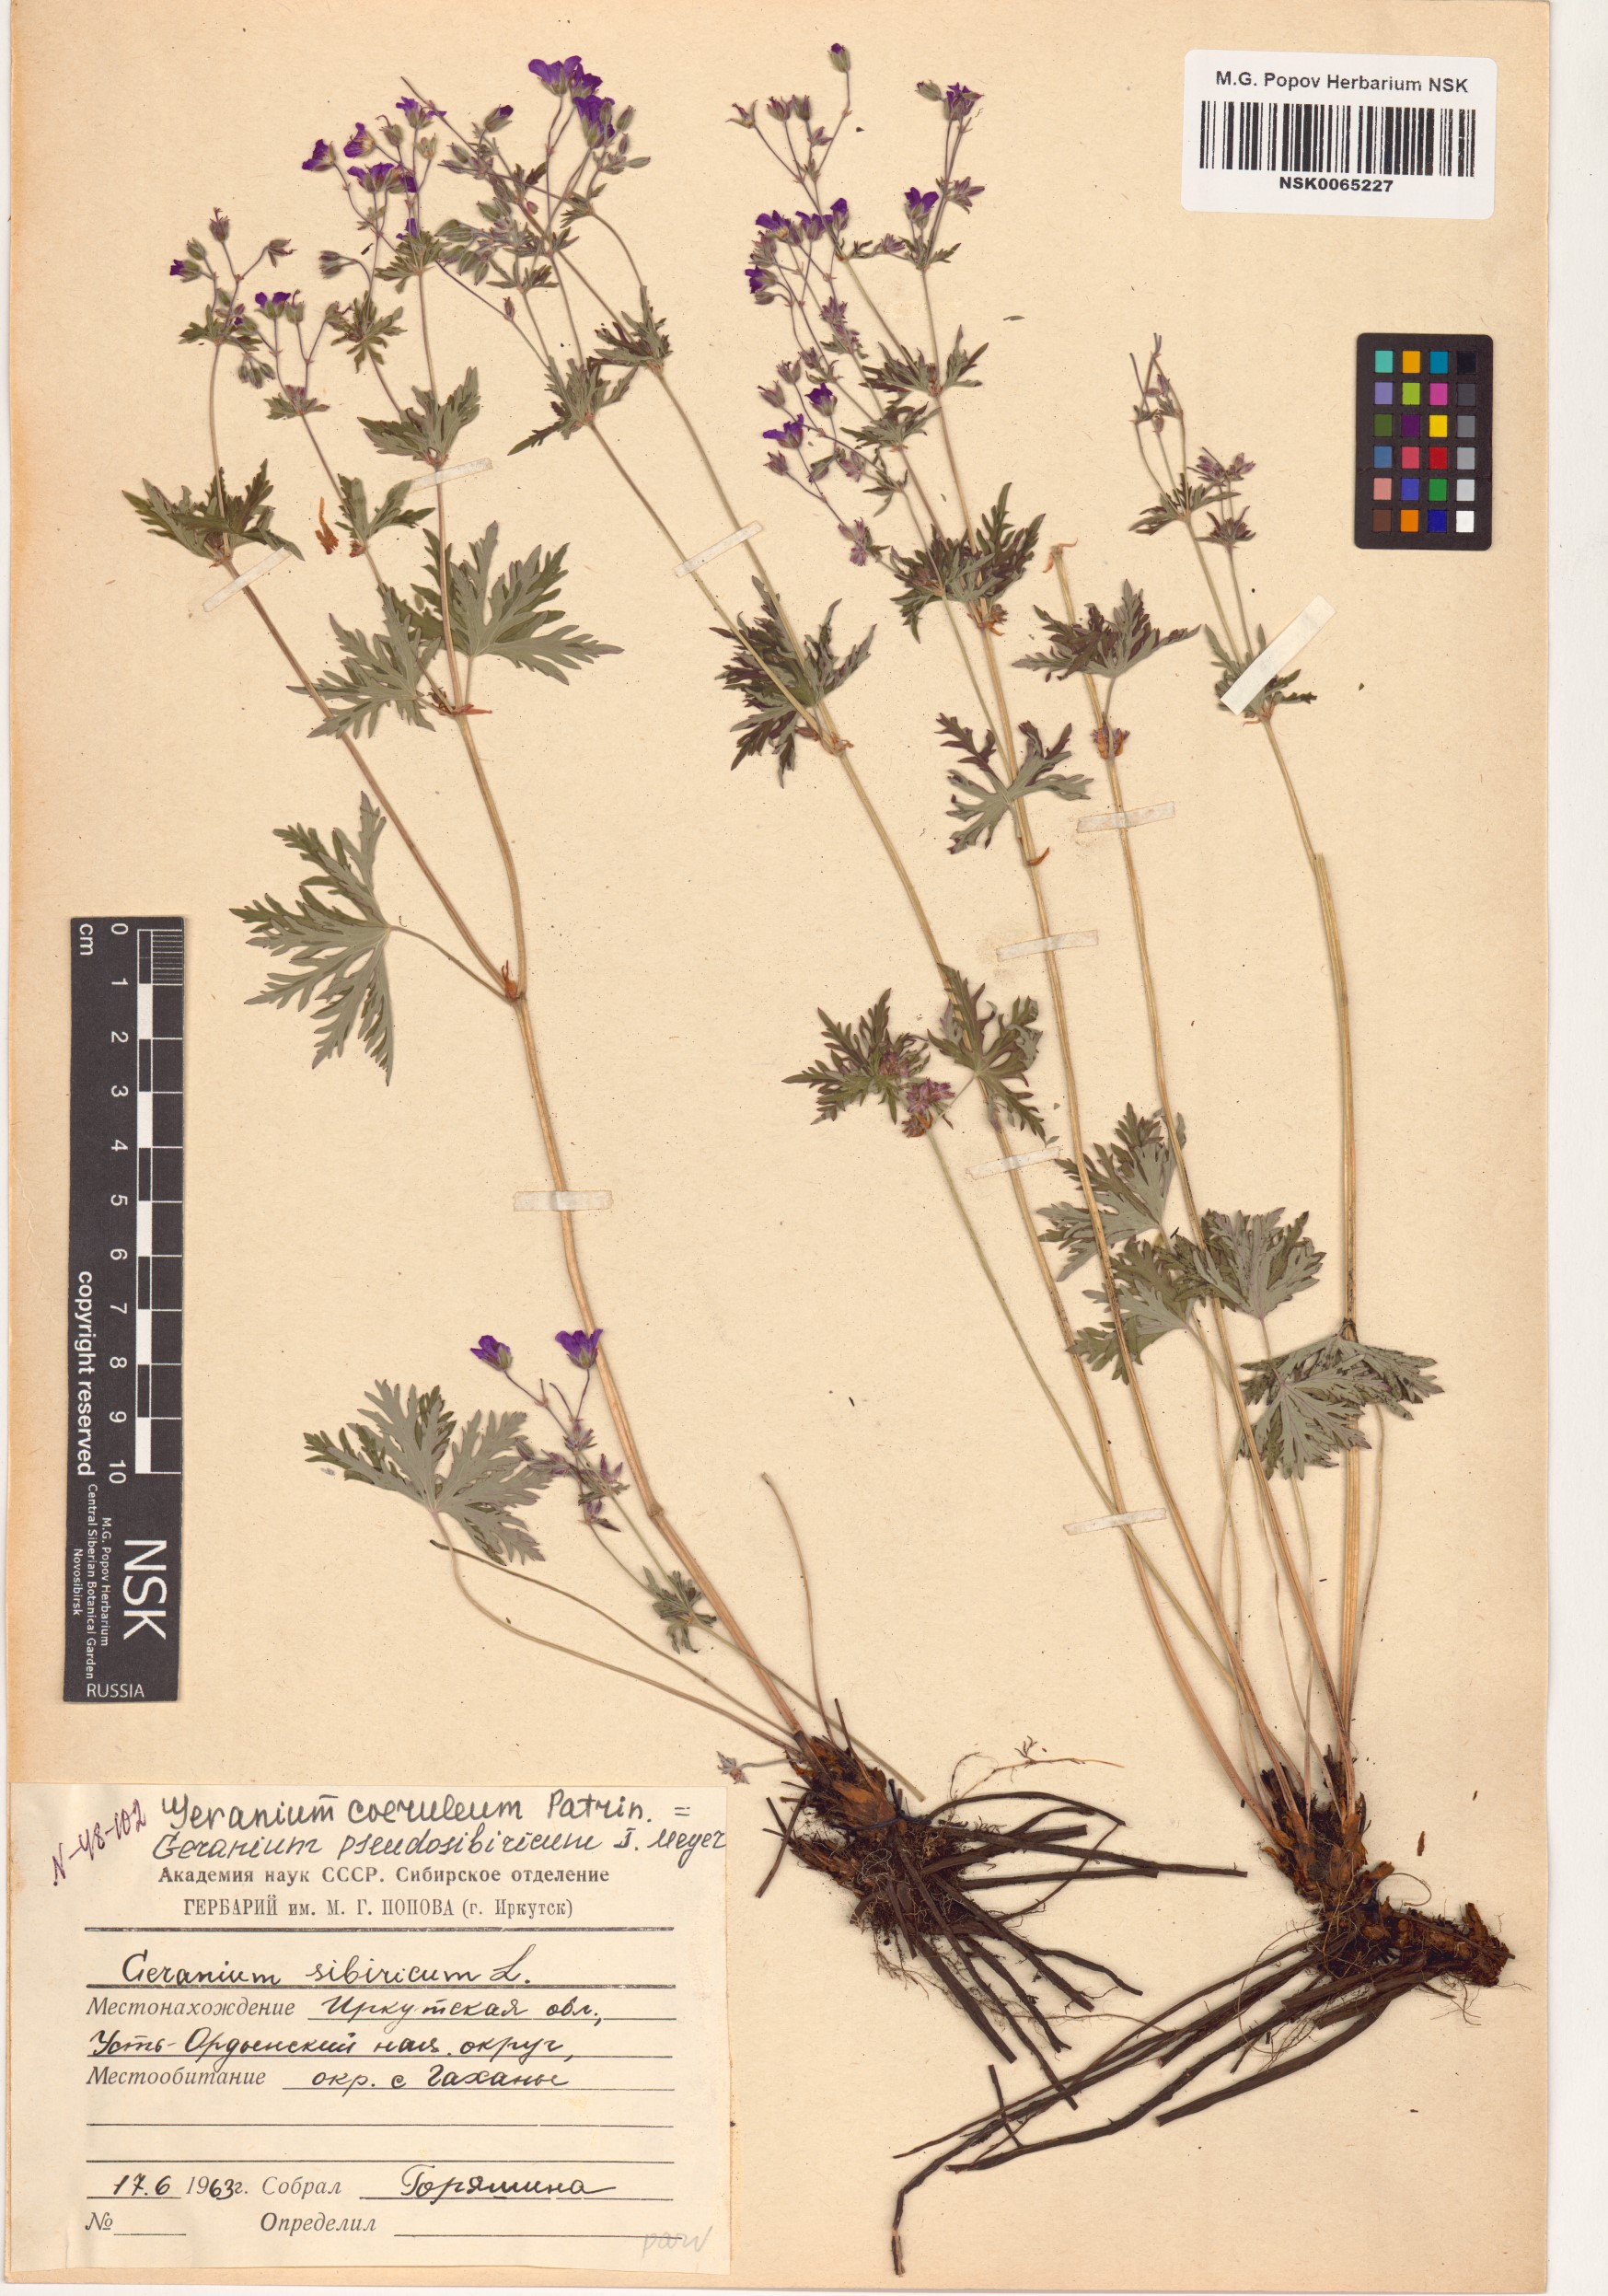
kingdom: Plantae
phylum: Tracheophyta
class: Magnoliopsida
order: Geraniales
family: Geraniaceae
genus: Geranium
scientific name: Geranium pseudosibiricum
